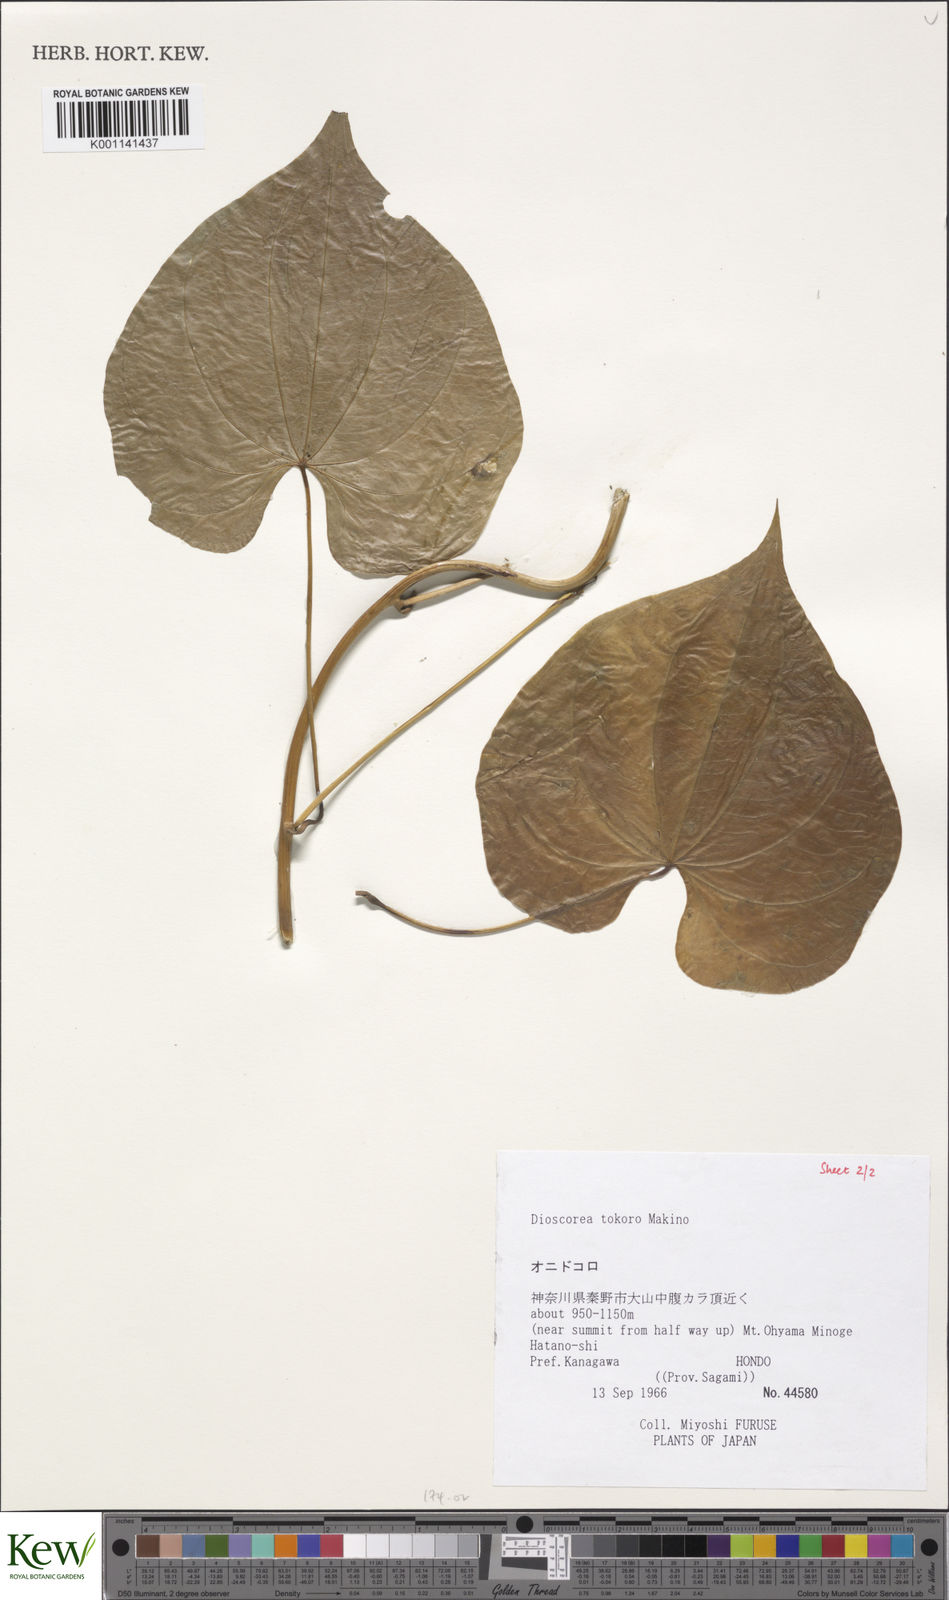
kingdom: Plantae
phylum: Tracheophyta
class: Liliopsida
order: Dioscoreales
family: Dioscoreaceae
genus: Dioscorea
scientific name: Dioscorea tokoro
